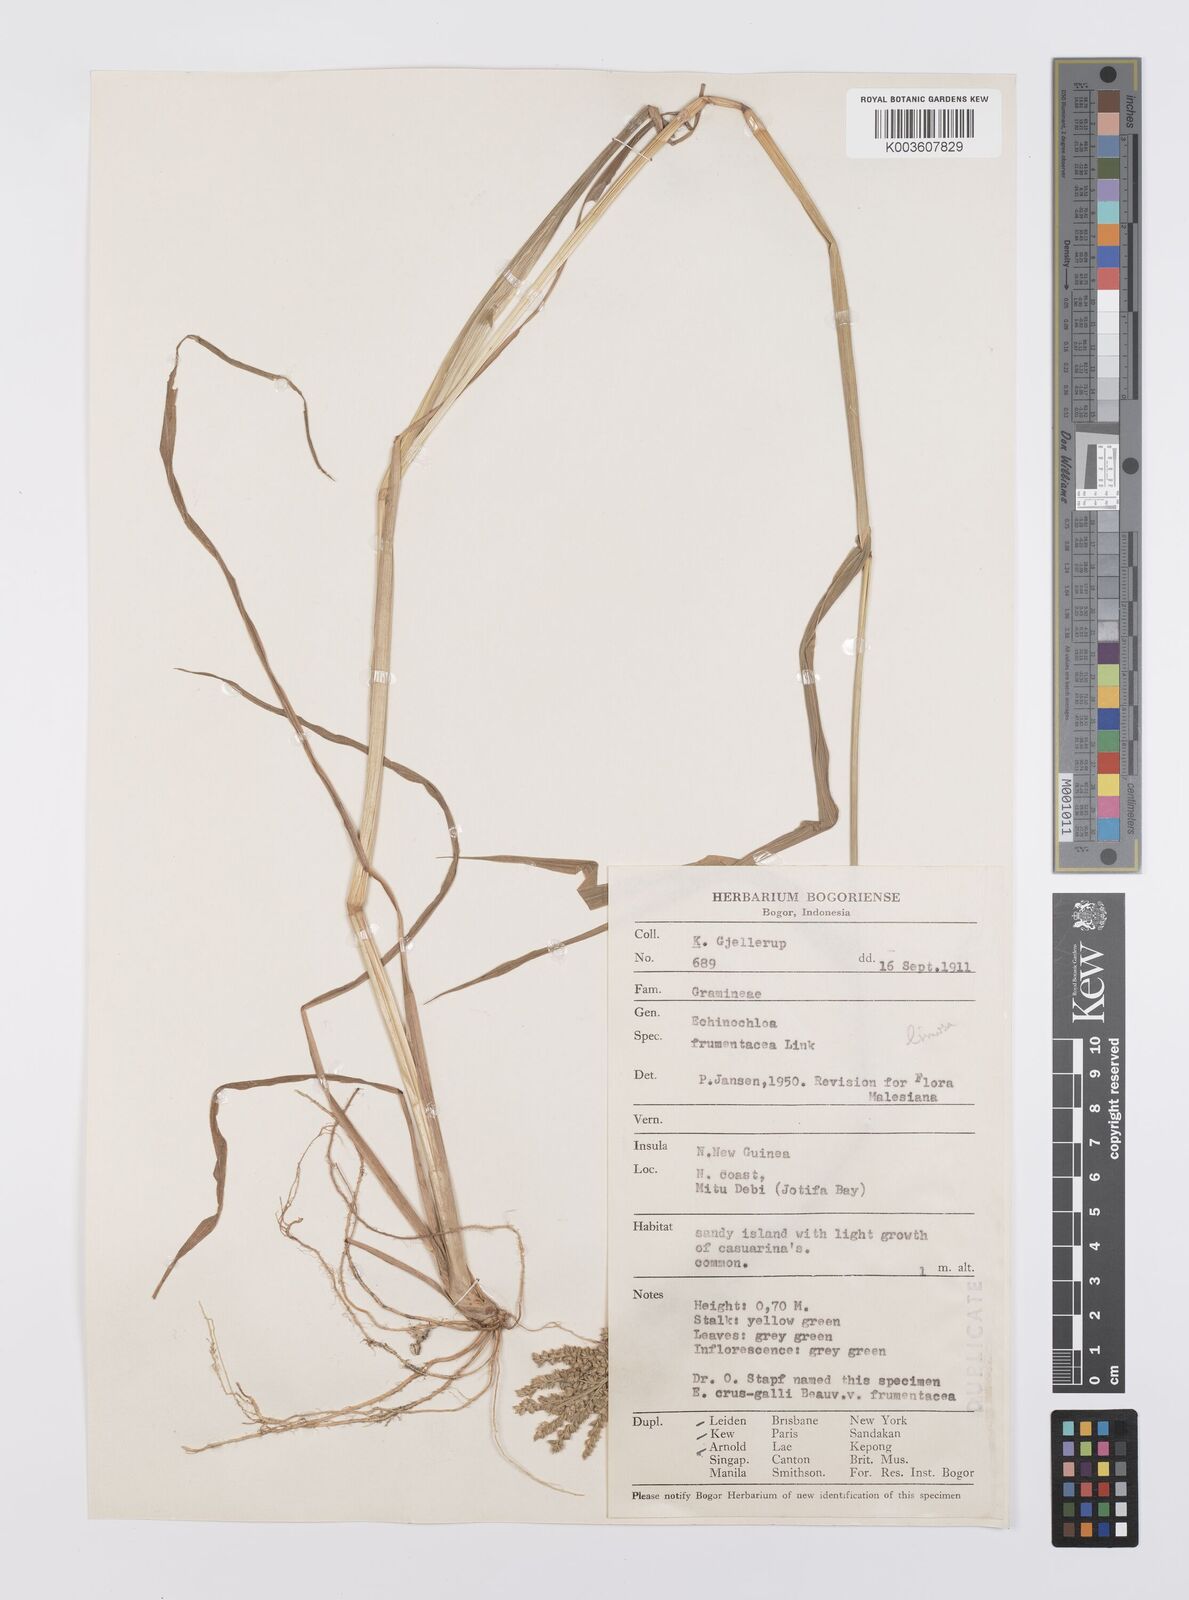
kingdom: Plantae
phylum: Tracheophyta
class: Liliopsida
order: Poales
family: Poaceae
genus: Echinochloa
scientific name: Echinochloa crus-galli
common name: Cockspur
